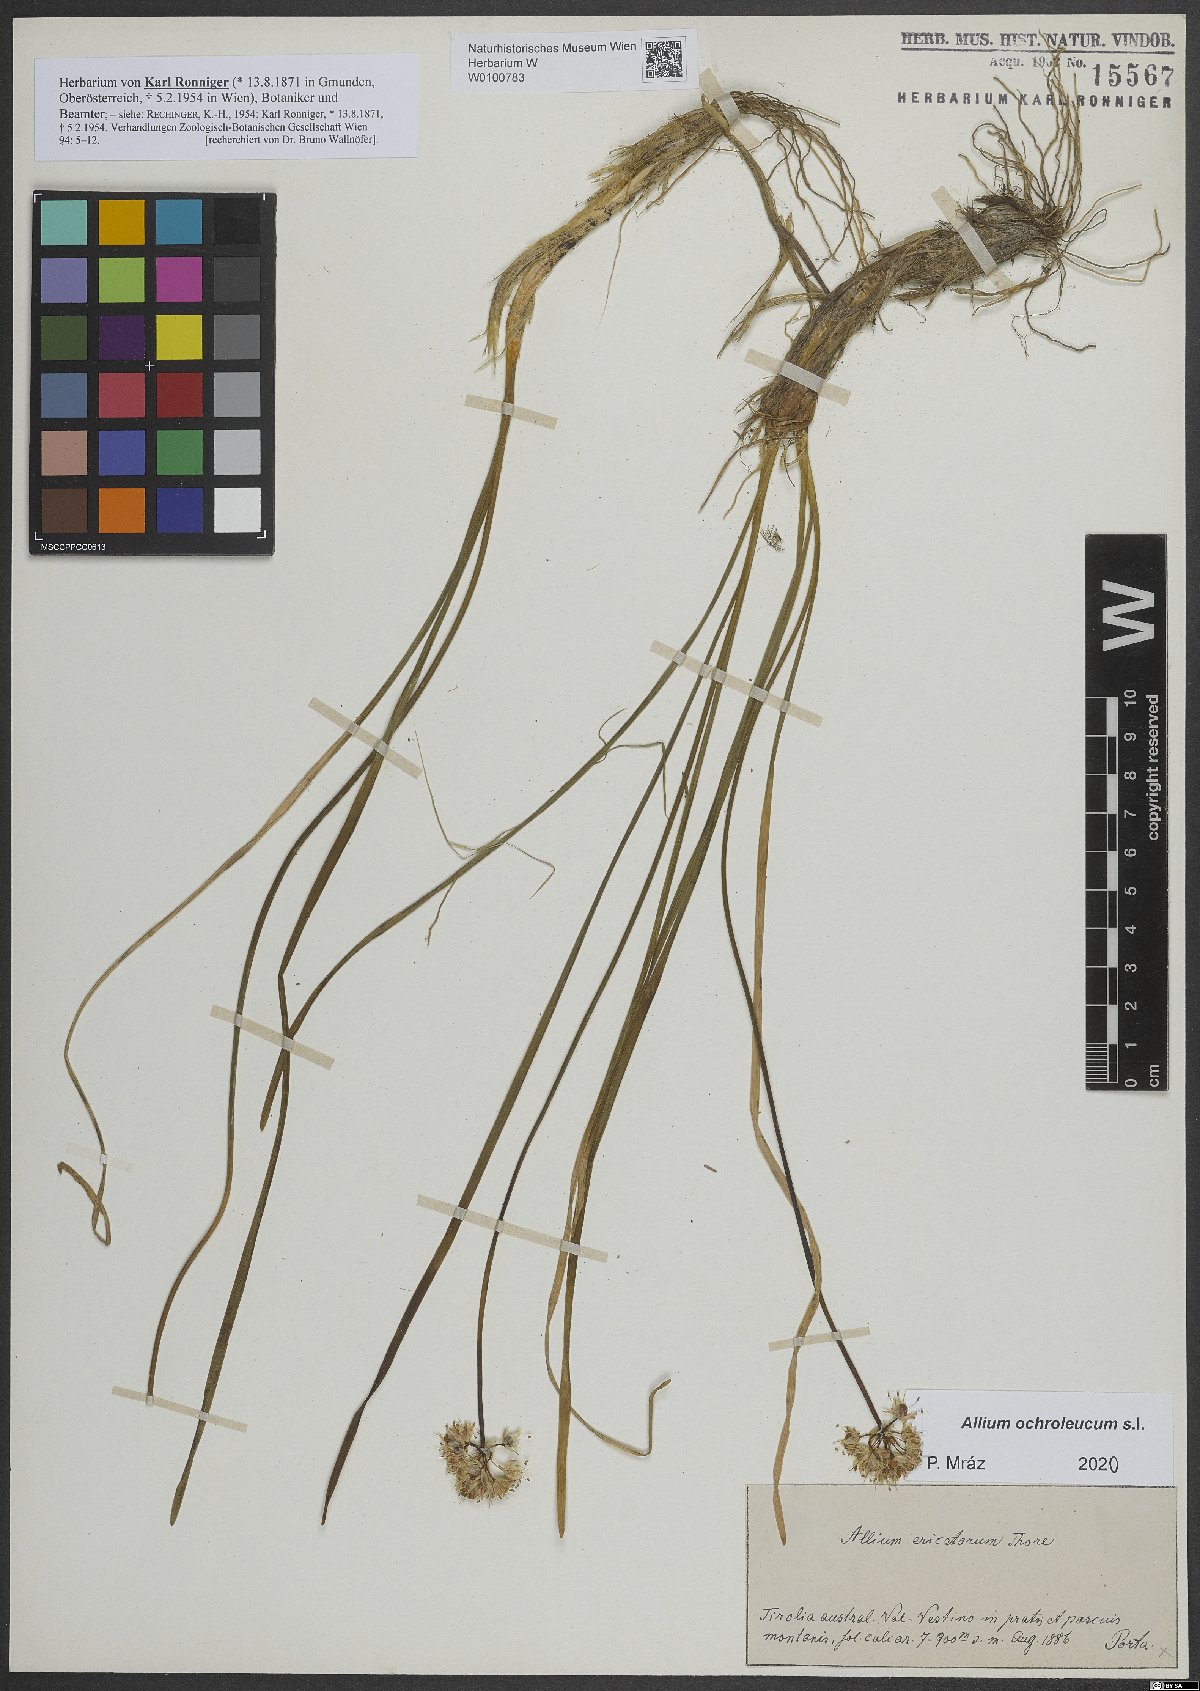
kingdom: Plantae
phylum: Tracheophyta
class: Liliopsida
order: Asparagales
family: Amaryllidaceae
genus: Allium
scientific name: Allium ericetorum
